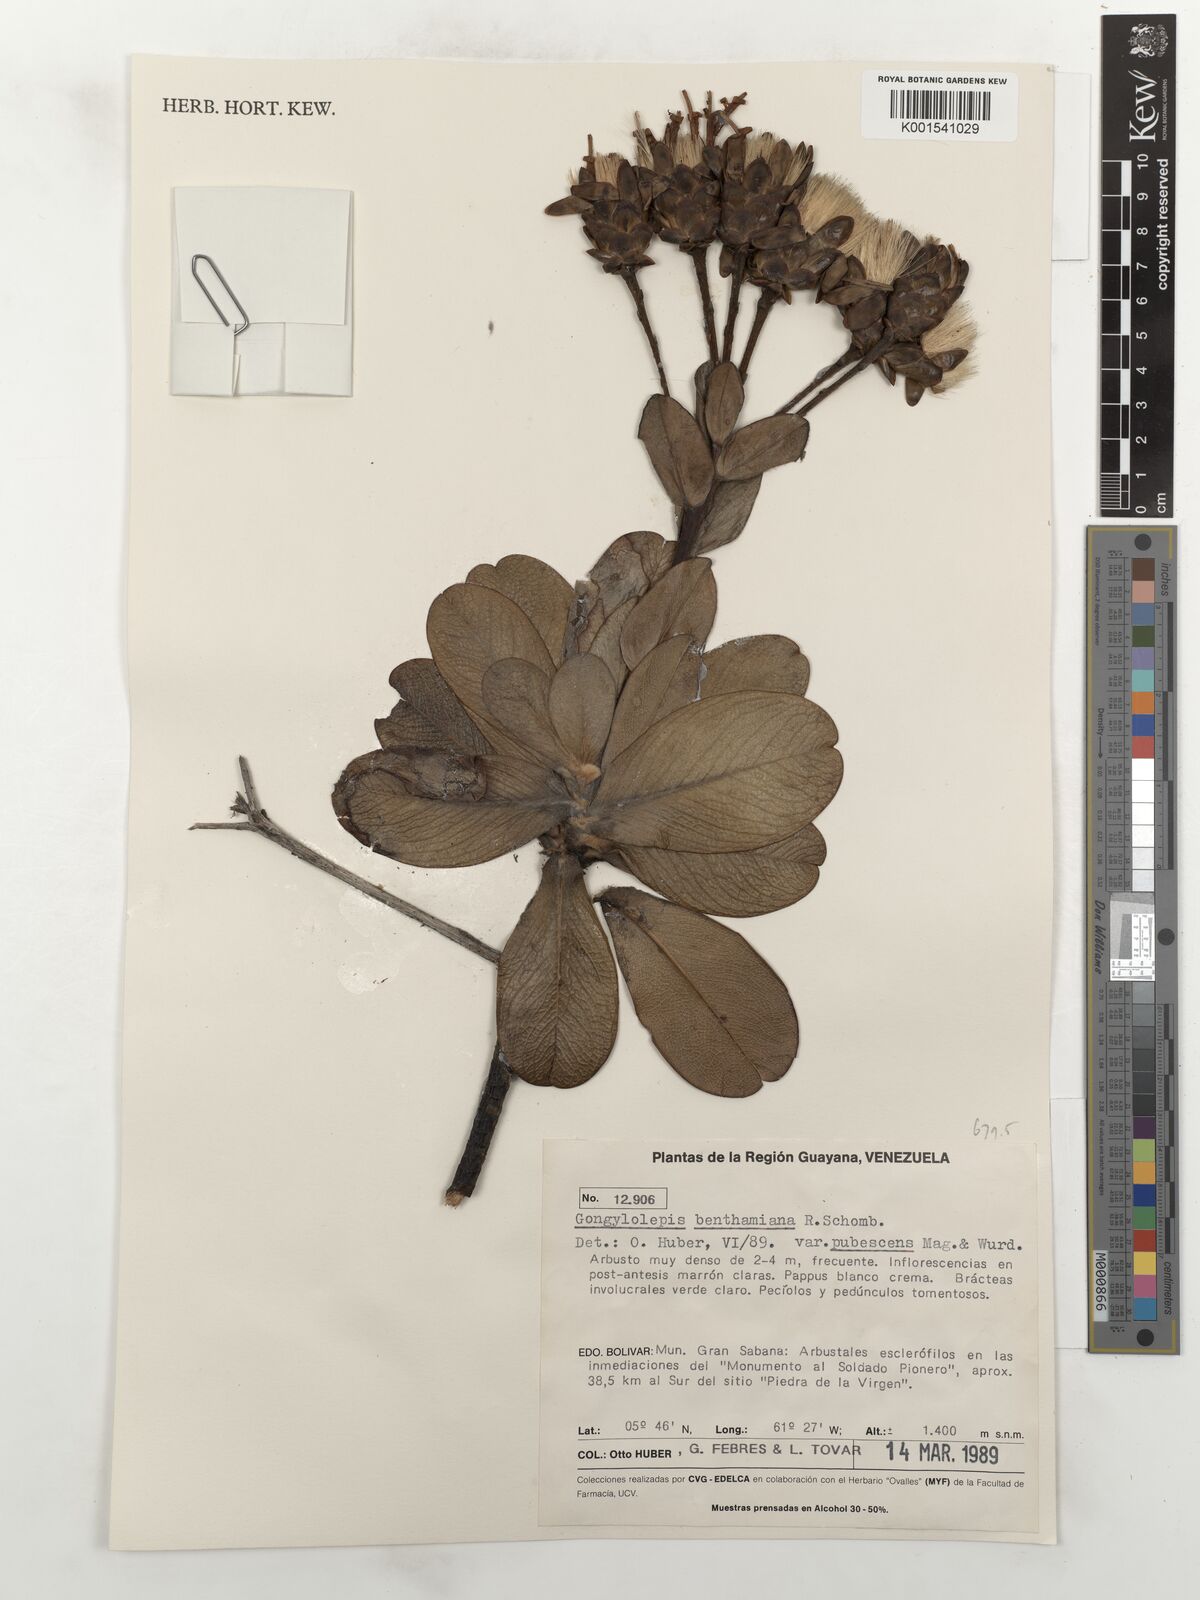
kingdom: Plantae
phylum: Tracheophyta
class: Magnoliopsida
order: Asterales
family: Asteraceae
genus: Gongylolepis
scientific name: Gongylolepis benthamiana
